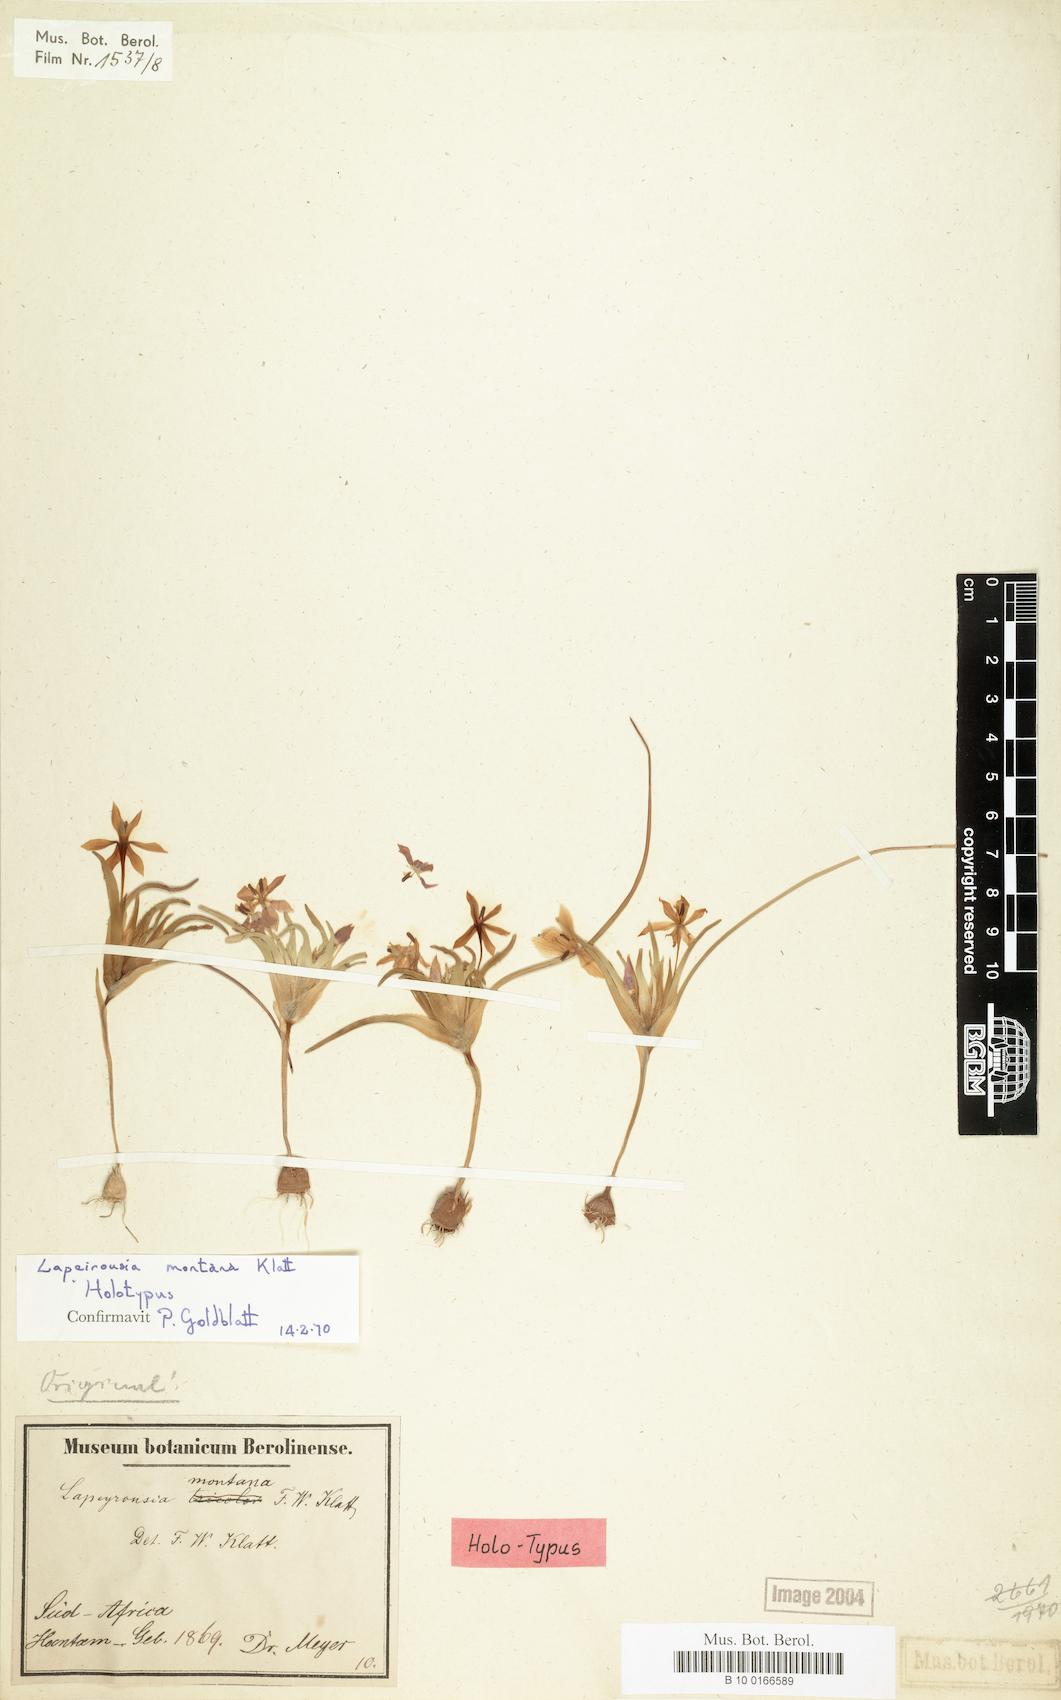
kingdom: Plantae
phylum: Tracheophyta
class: Liliopsida
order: Asparagales
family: Iridaceae
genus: Lapeirousia
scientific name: Lapeirousia montana
